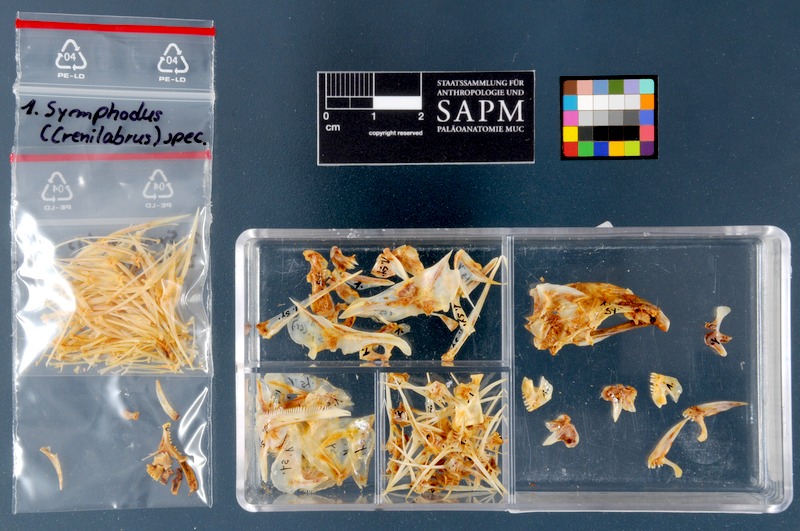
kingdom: Animalia
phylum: Chordata
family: Labroidei
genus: Crenilabrus
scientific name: Crenilabrus
